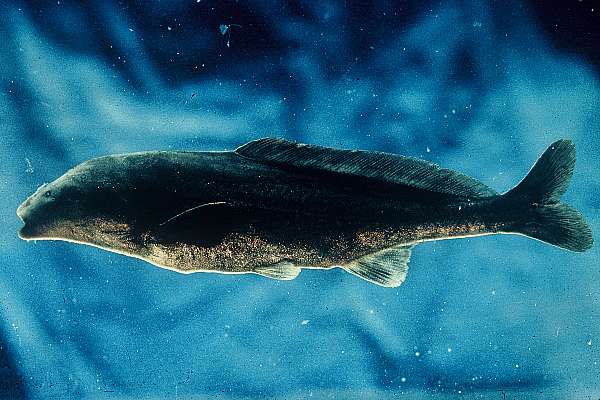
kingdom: Animalia
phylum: Chordata
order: Osteoglossiformes
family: Mormyridae
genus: Mormyrus
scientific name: Mormyrus longirostris
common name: Eastern bottlenose
